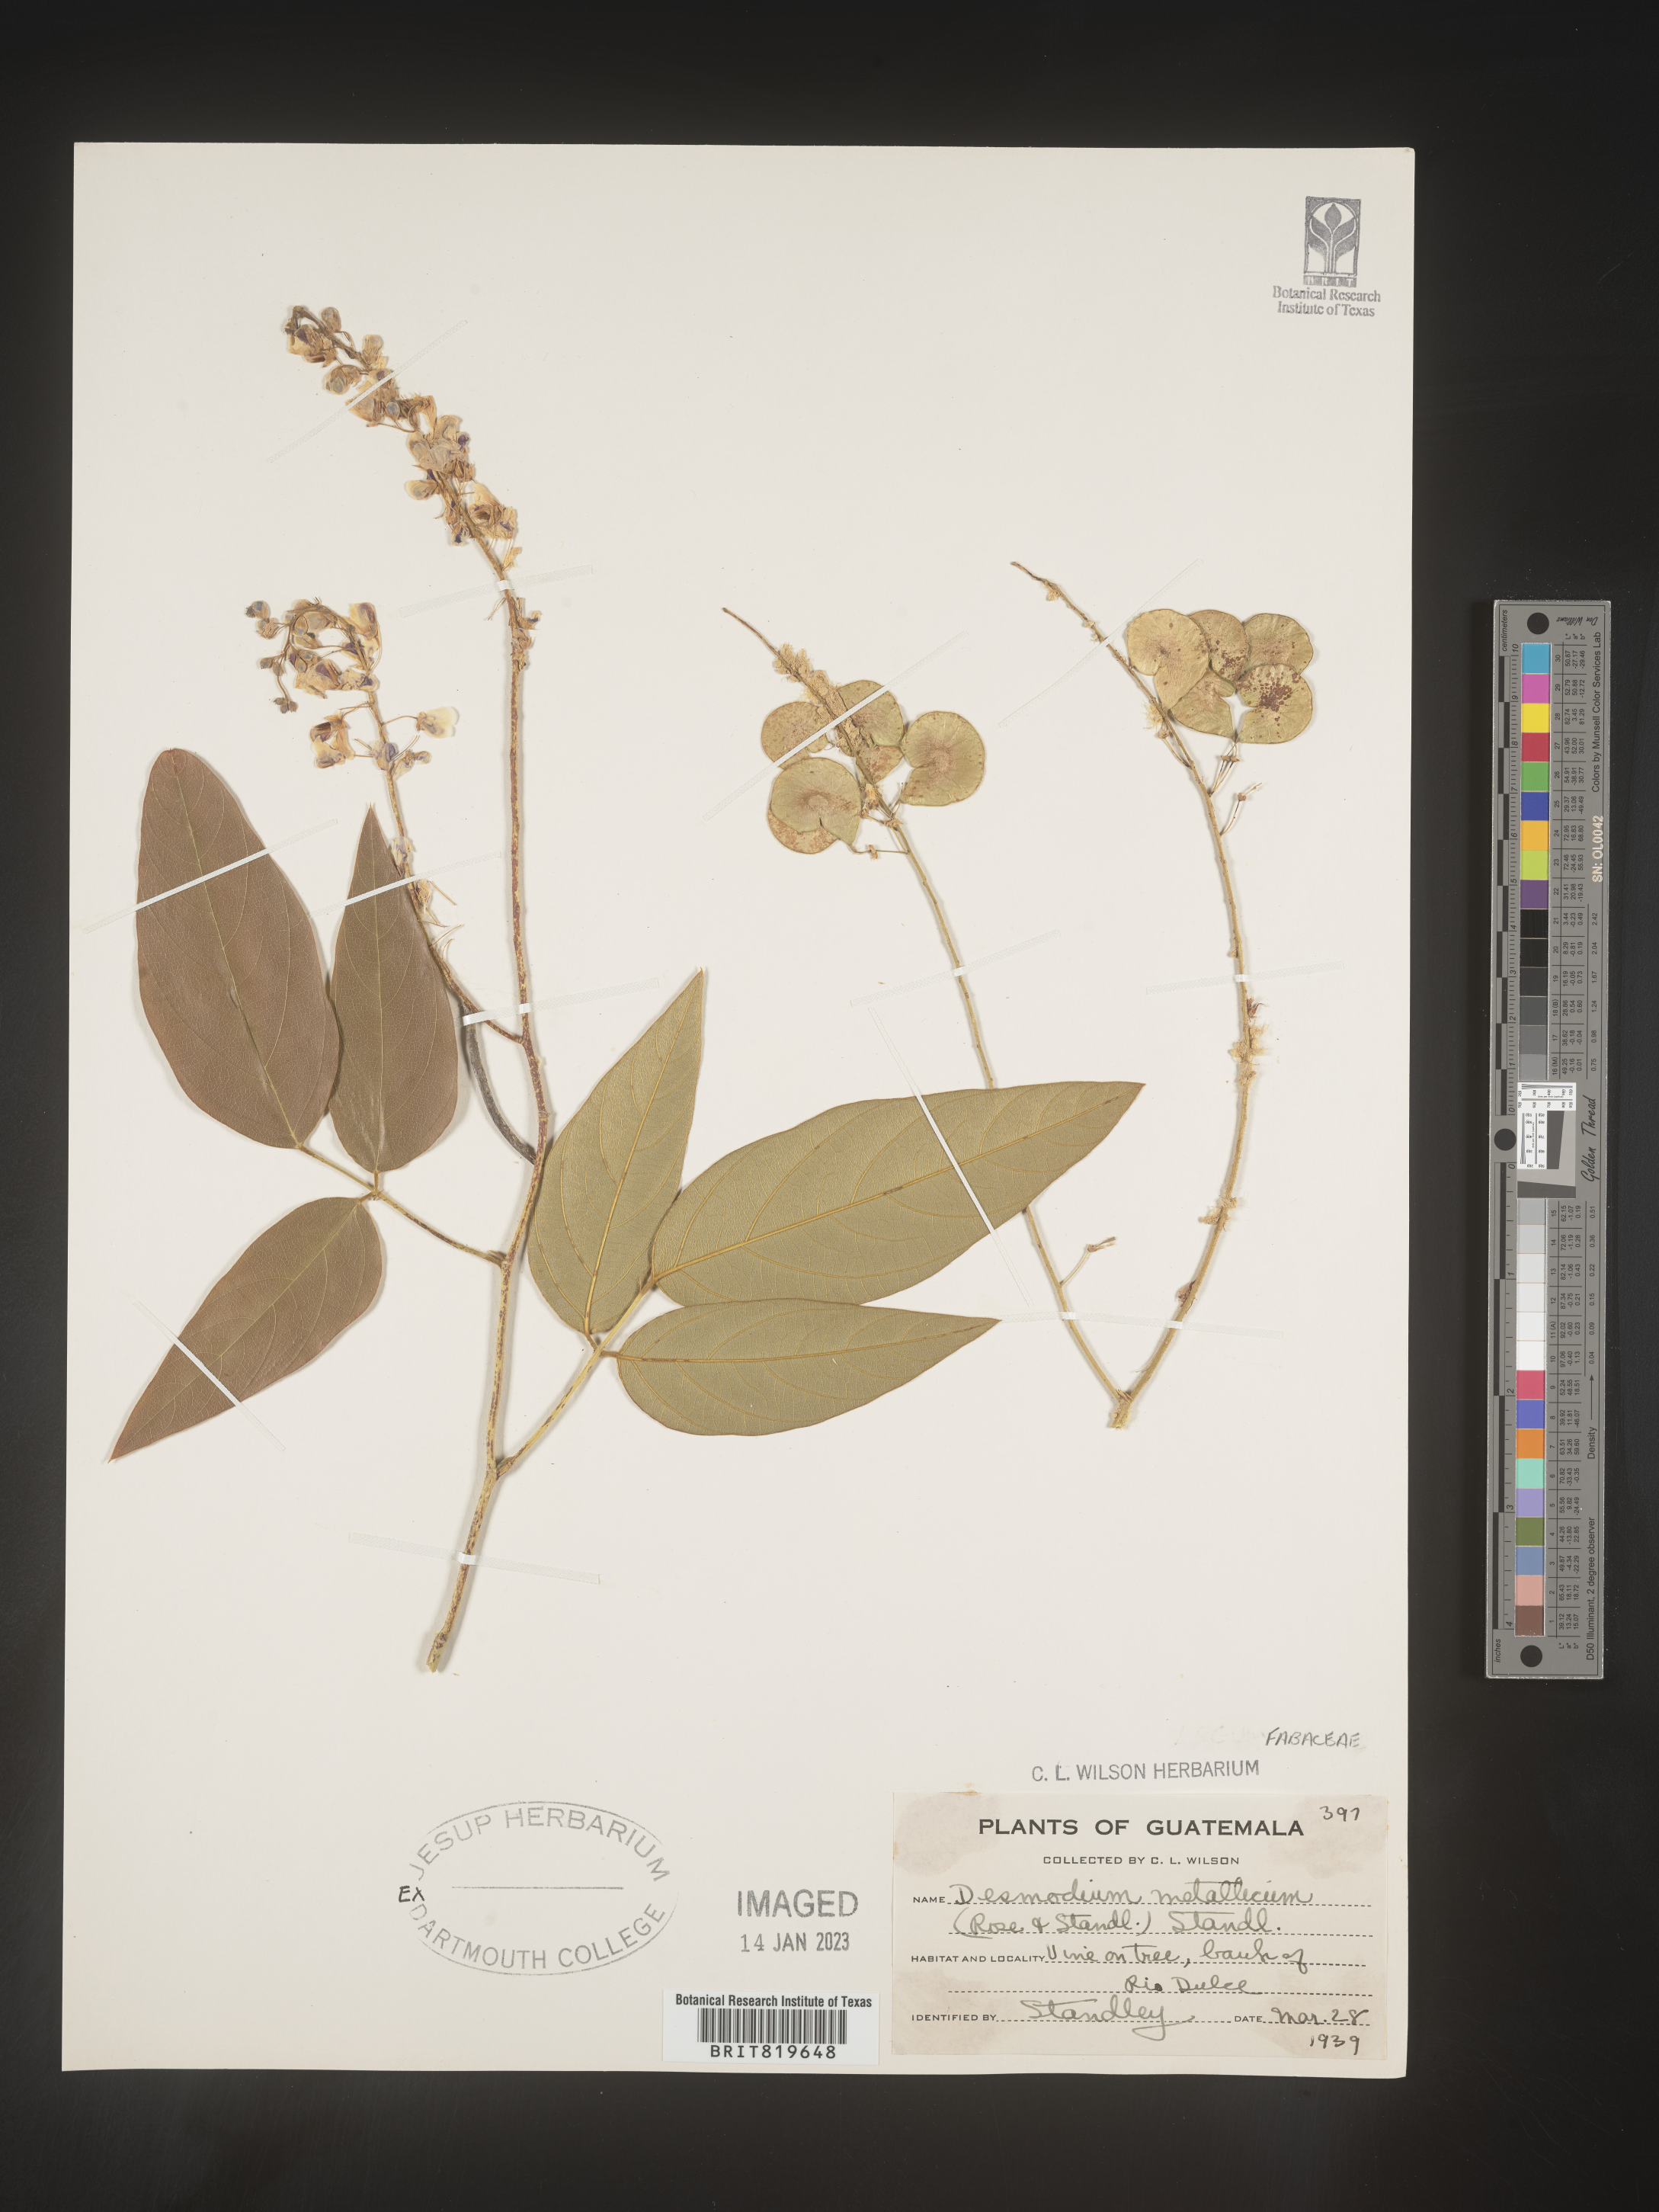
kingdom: Plantae
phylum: Tracheophyta
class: Magnoliopsida
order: Fabales
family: Fabaceae
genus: Desmodium
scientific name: Desmodium
